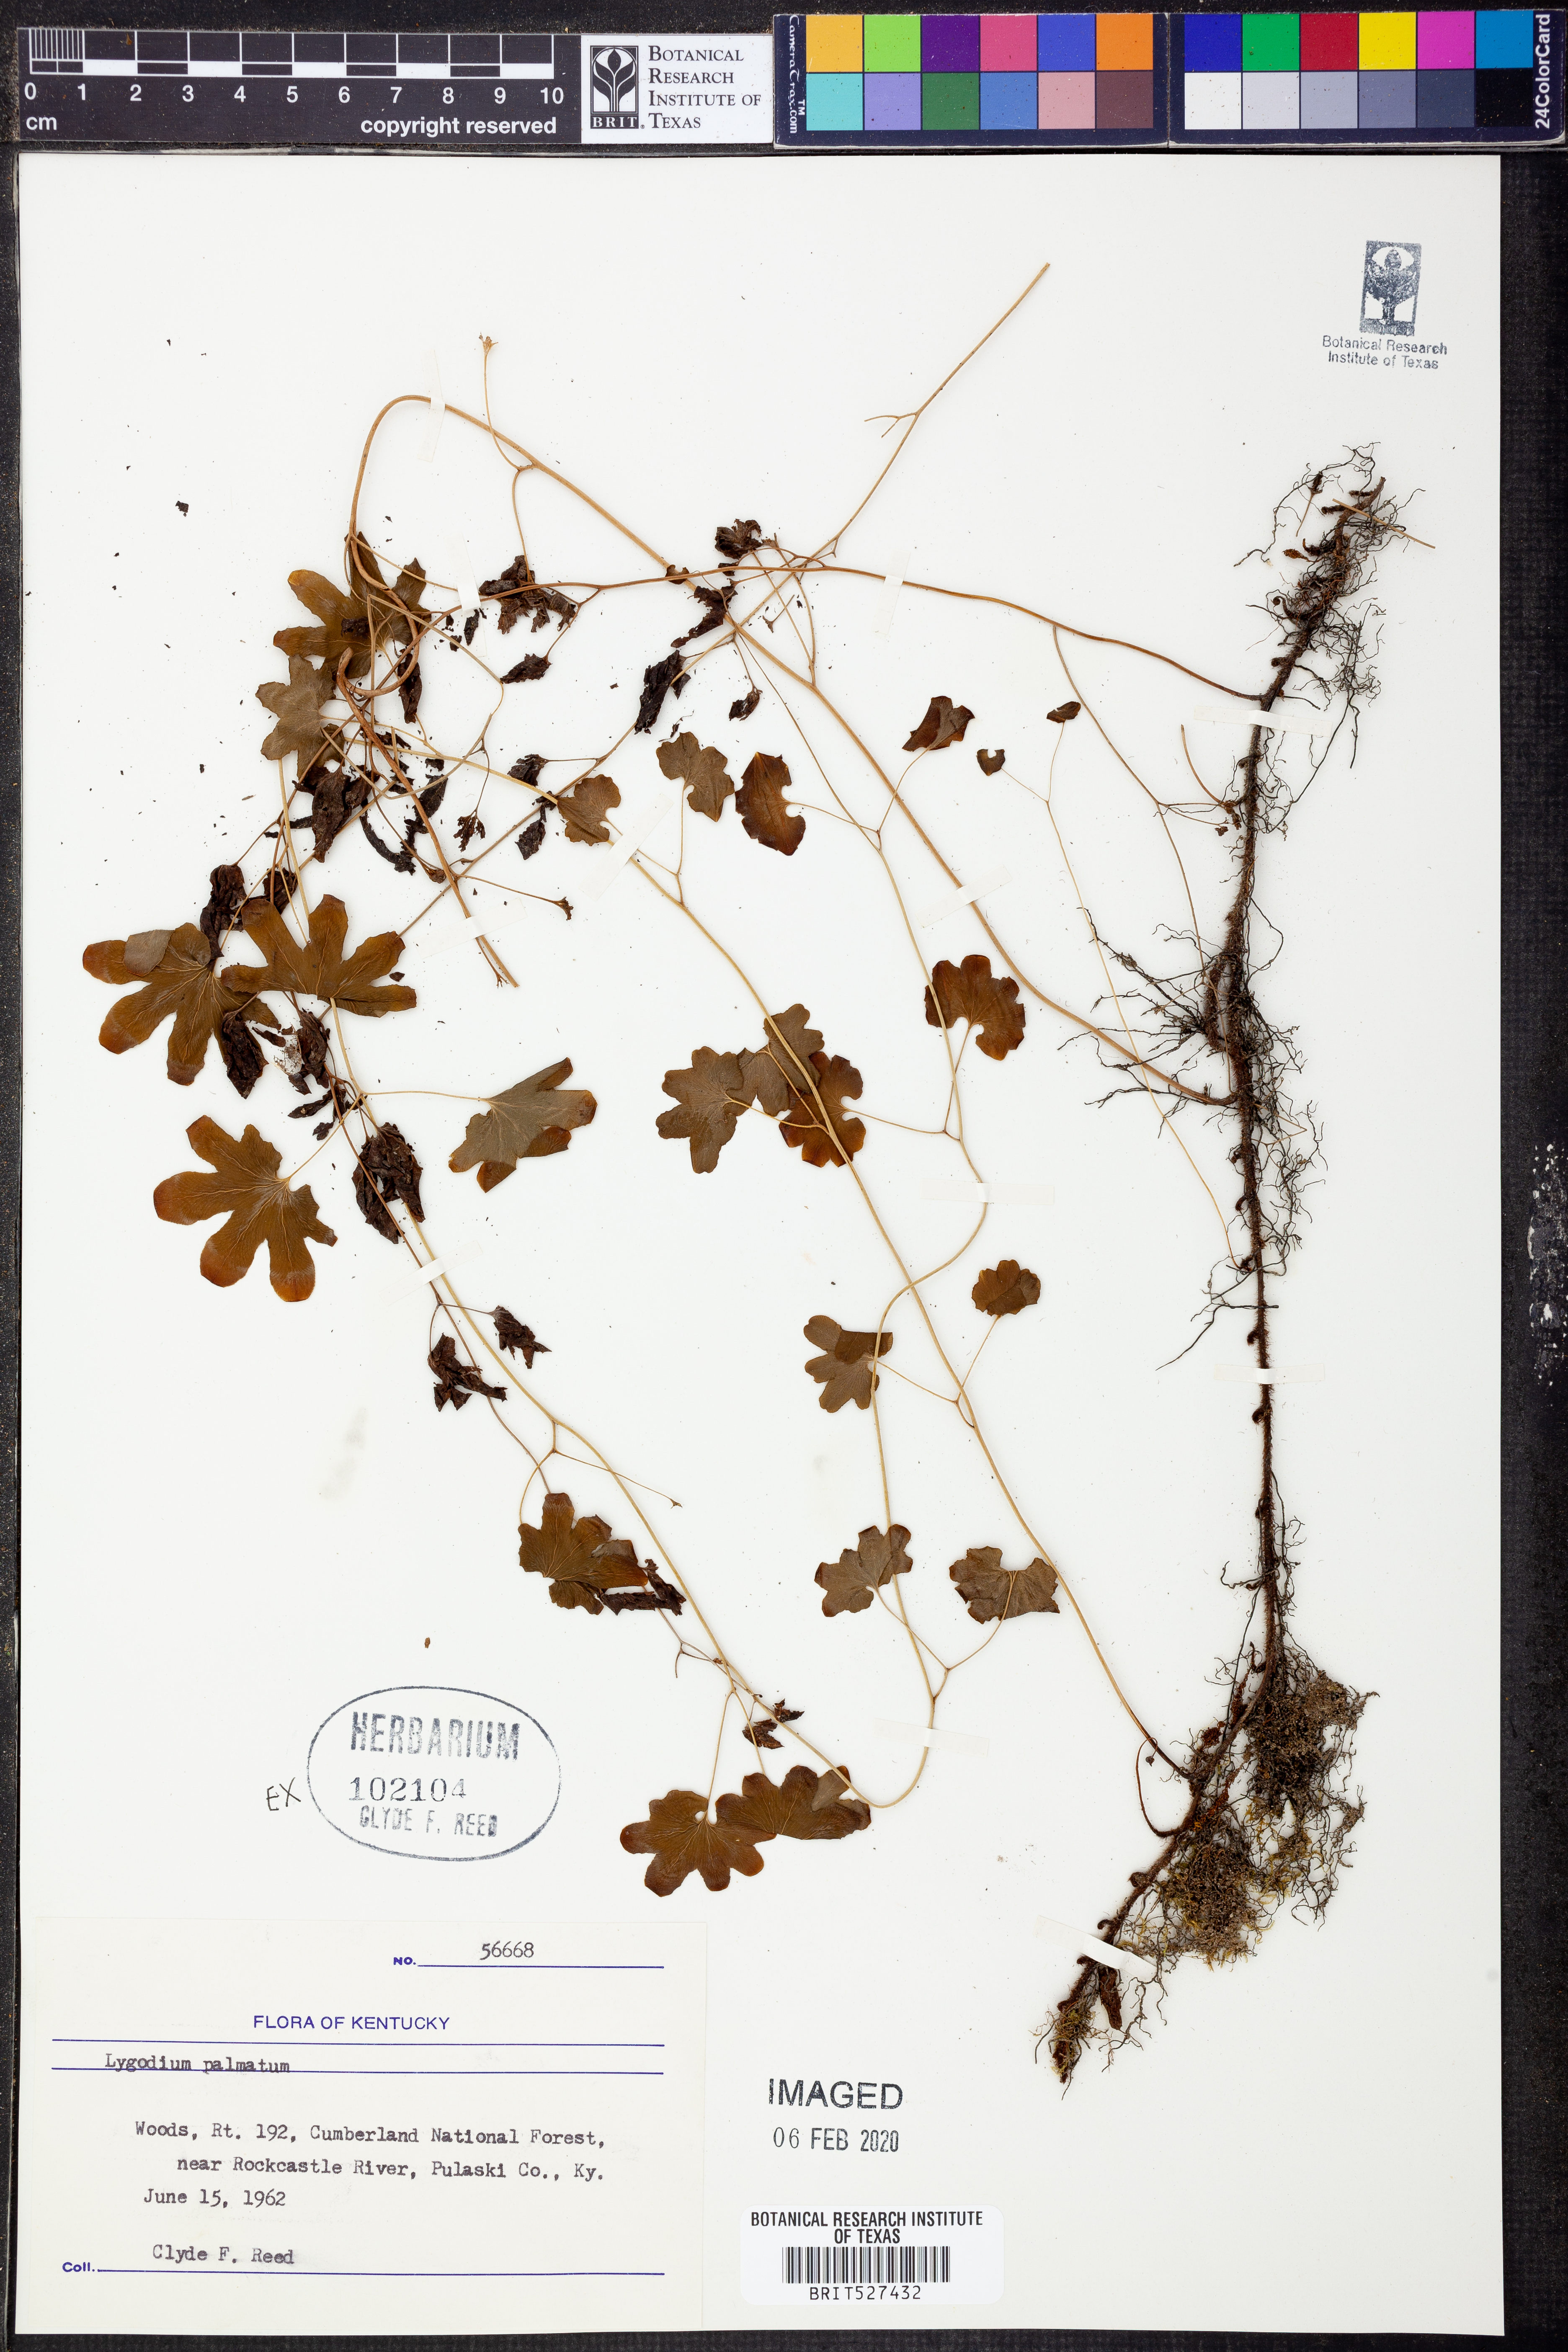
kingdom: Plantae
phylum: Tracheophyta
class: Polypodiopsida
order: Schizaeales
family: Lygodiaceae
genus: Lygodium
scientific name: Lygodium palmatum
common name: American climbing fern
